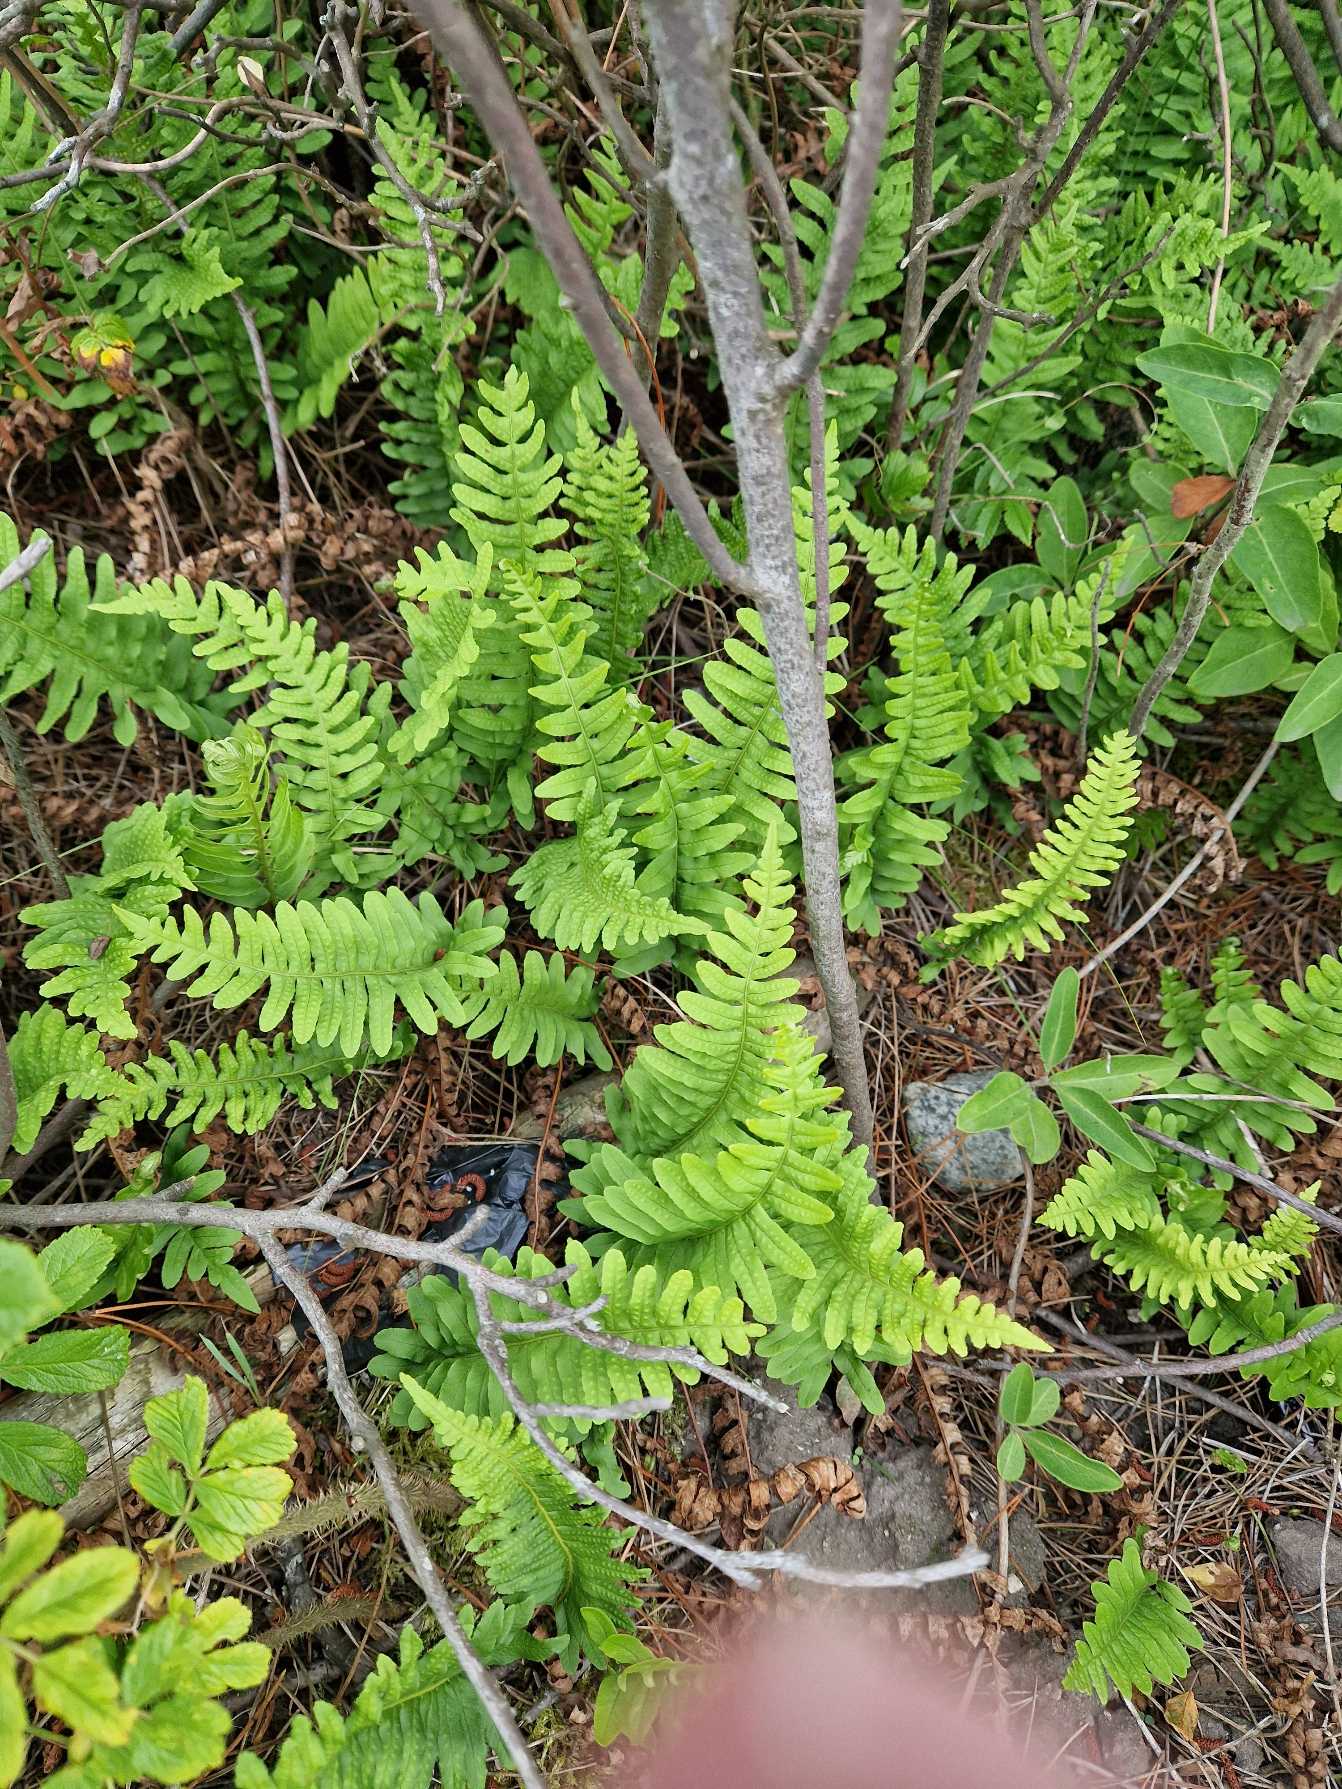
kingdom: Plantae
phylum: Tracheophyta
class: Polypodiopsida
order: Polypodiales
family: Polypodiaceae
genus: Polypodium
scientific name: Polypodium vulgare
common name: Almindelig engelsød
